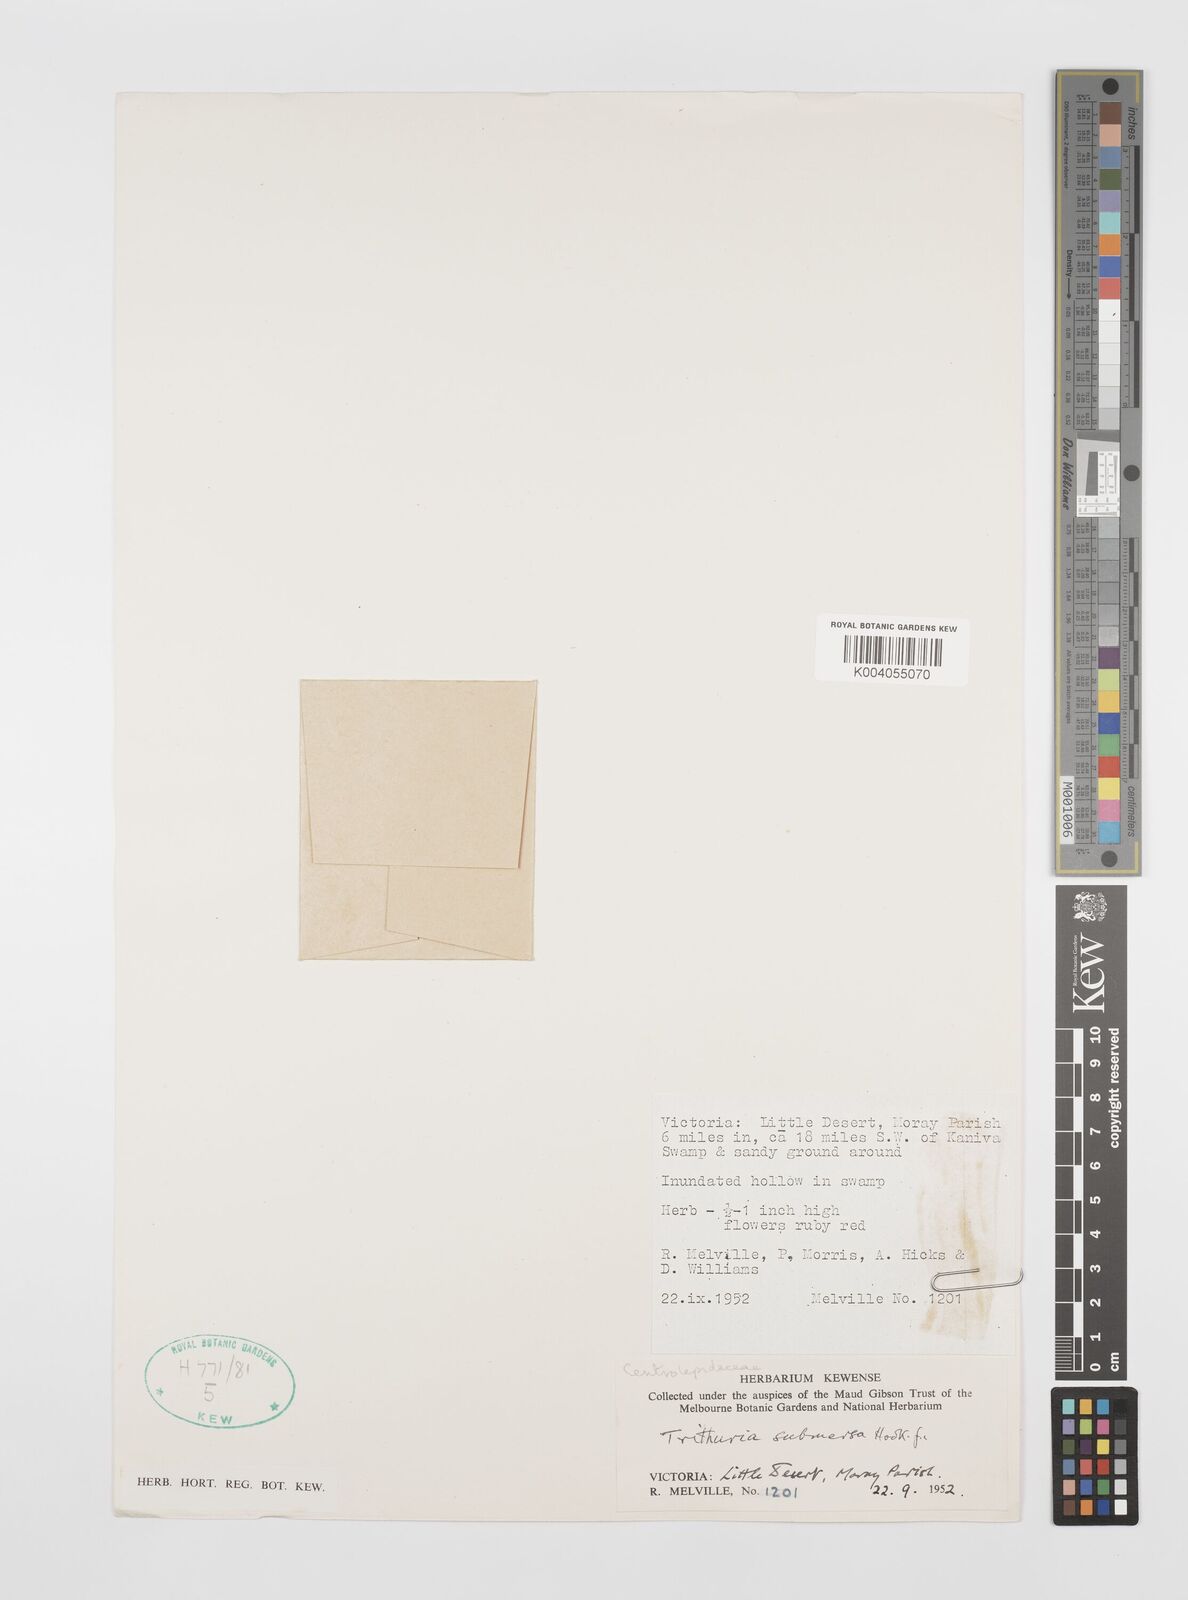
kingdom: Plantae
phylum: Tracheophyta
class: Magnoliopsida
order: Nymphaeales
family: Hydatellaceae
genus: Trithuria
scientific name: Trithuria submersa
